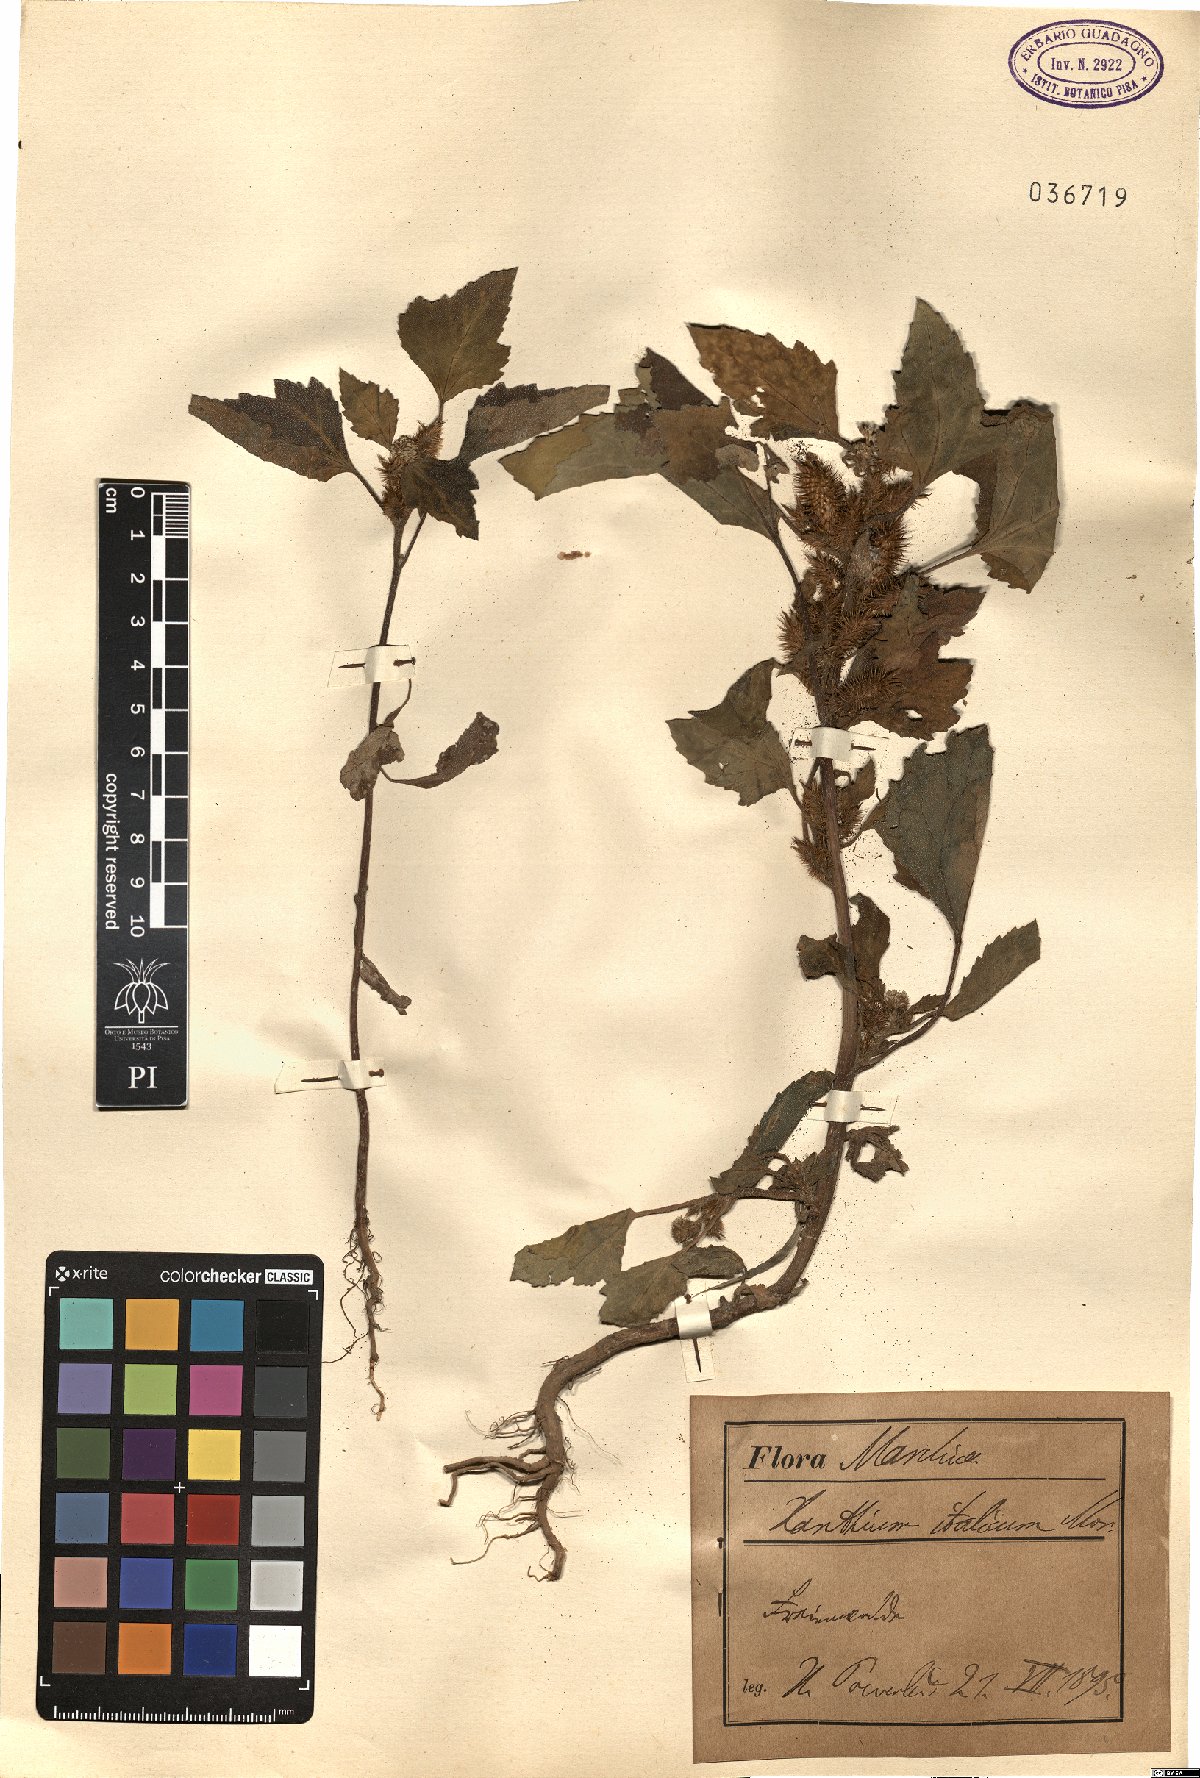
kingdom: Plantae
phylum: Tracheophyta
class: Magnoliopsida
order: Asterales
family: Asteraceae
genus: Xanthium
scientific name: Xanthium orientale
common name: Californian burr
